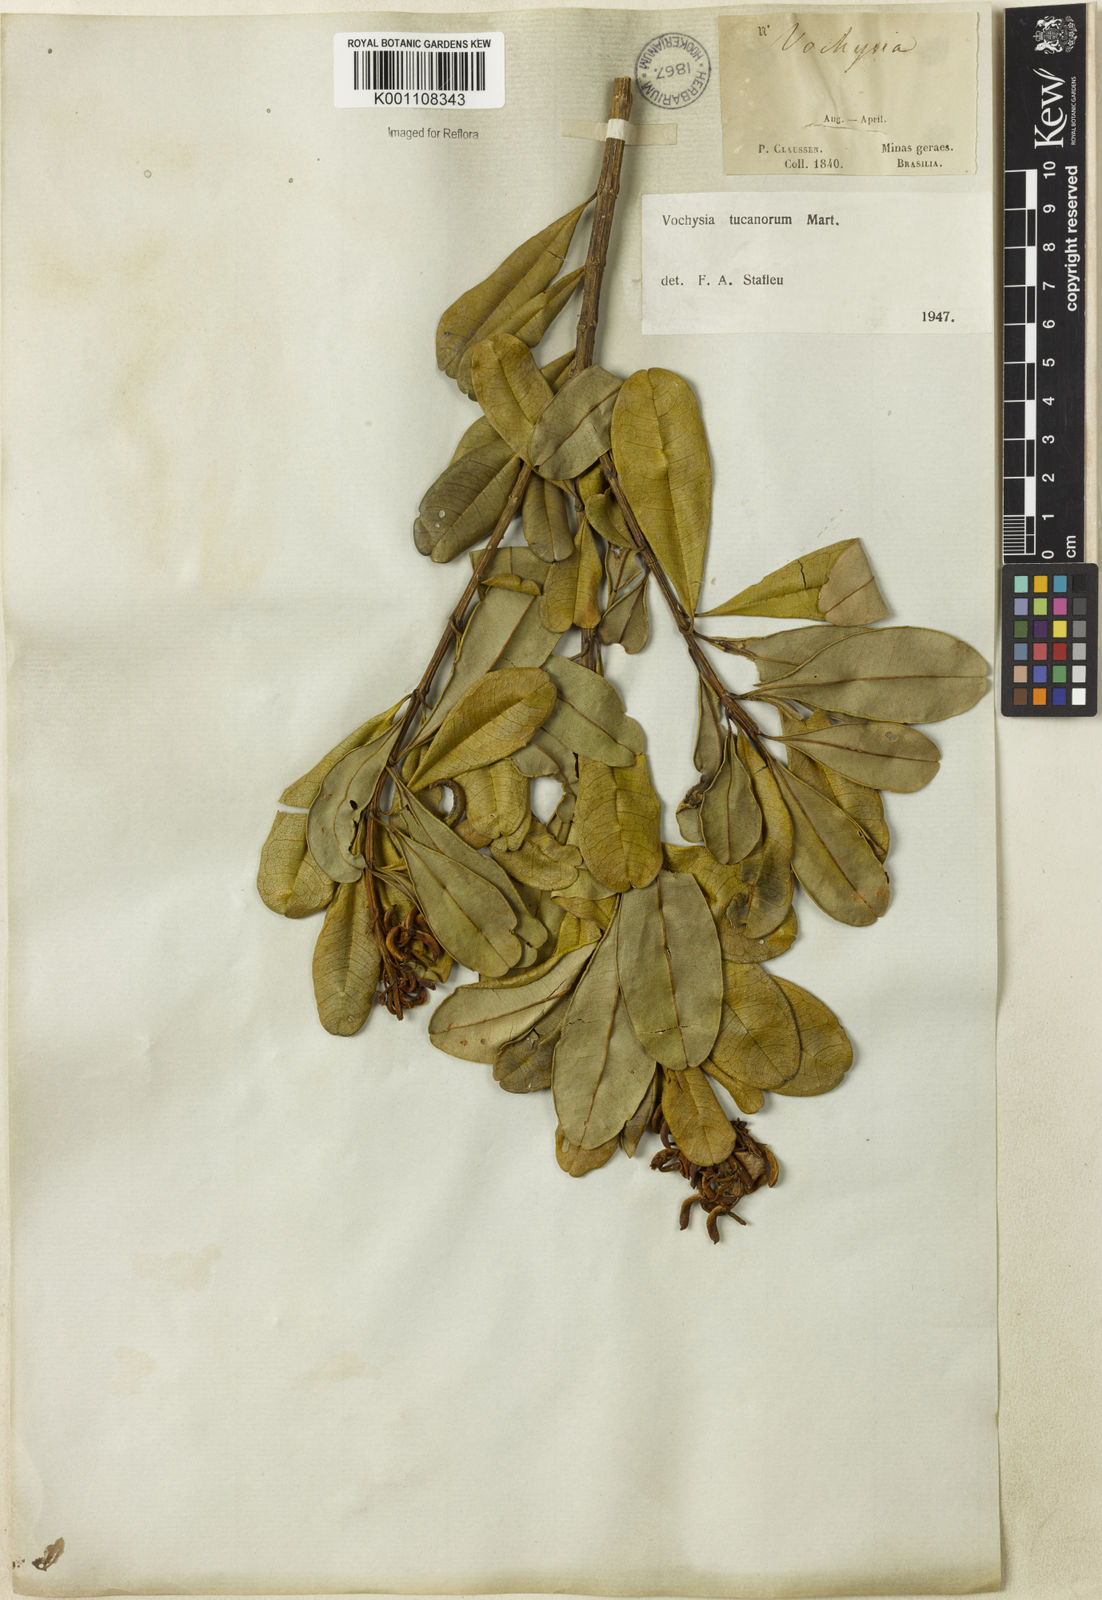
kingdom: Plantae
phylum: Tracheophyta
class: Magnoliopsida
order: Myrtales
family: Vochysiaceae
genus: Vochysia
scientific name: Vochysia tucanorum
